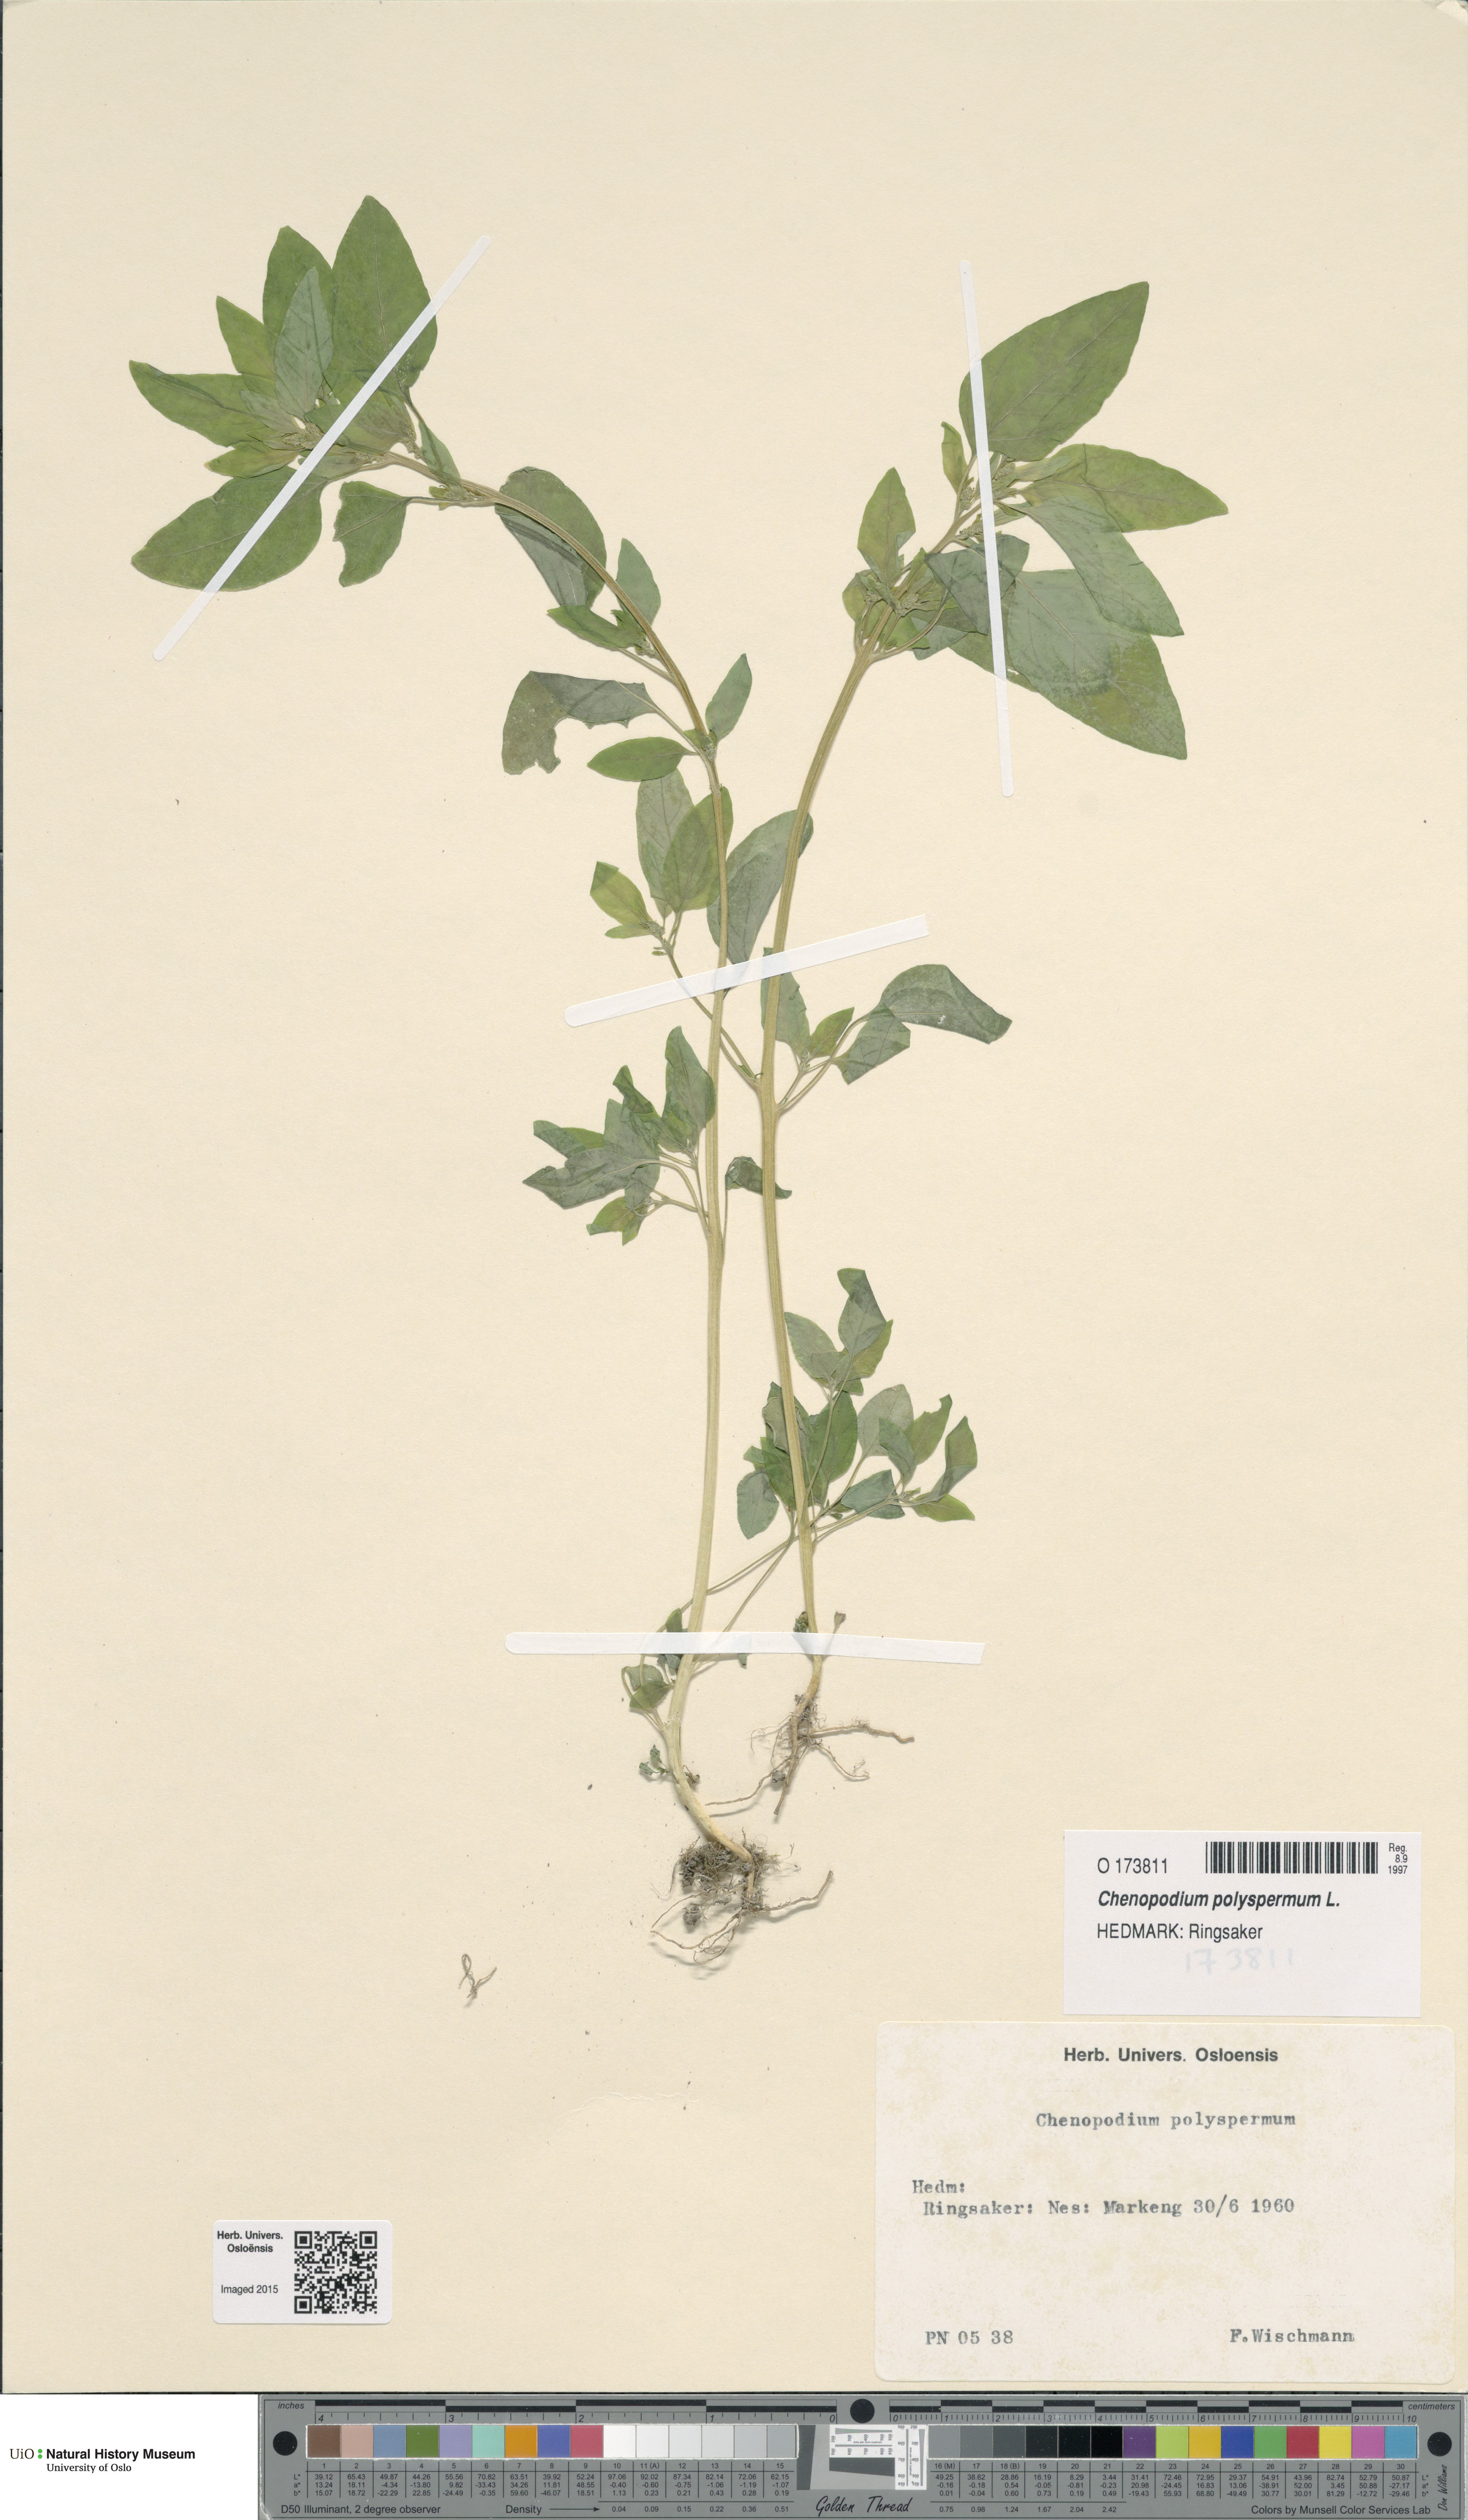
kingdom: Plantae
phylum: Tracheophyta
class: Magnoliopsida
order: Caryophyllales
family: Amaranthaceae
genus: Lipandra
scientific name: Lipandra polysperma
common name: Many-seed goosefoot
